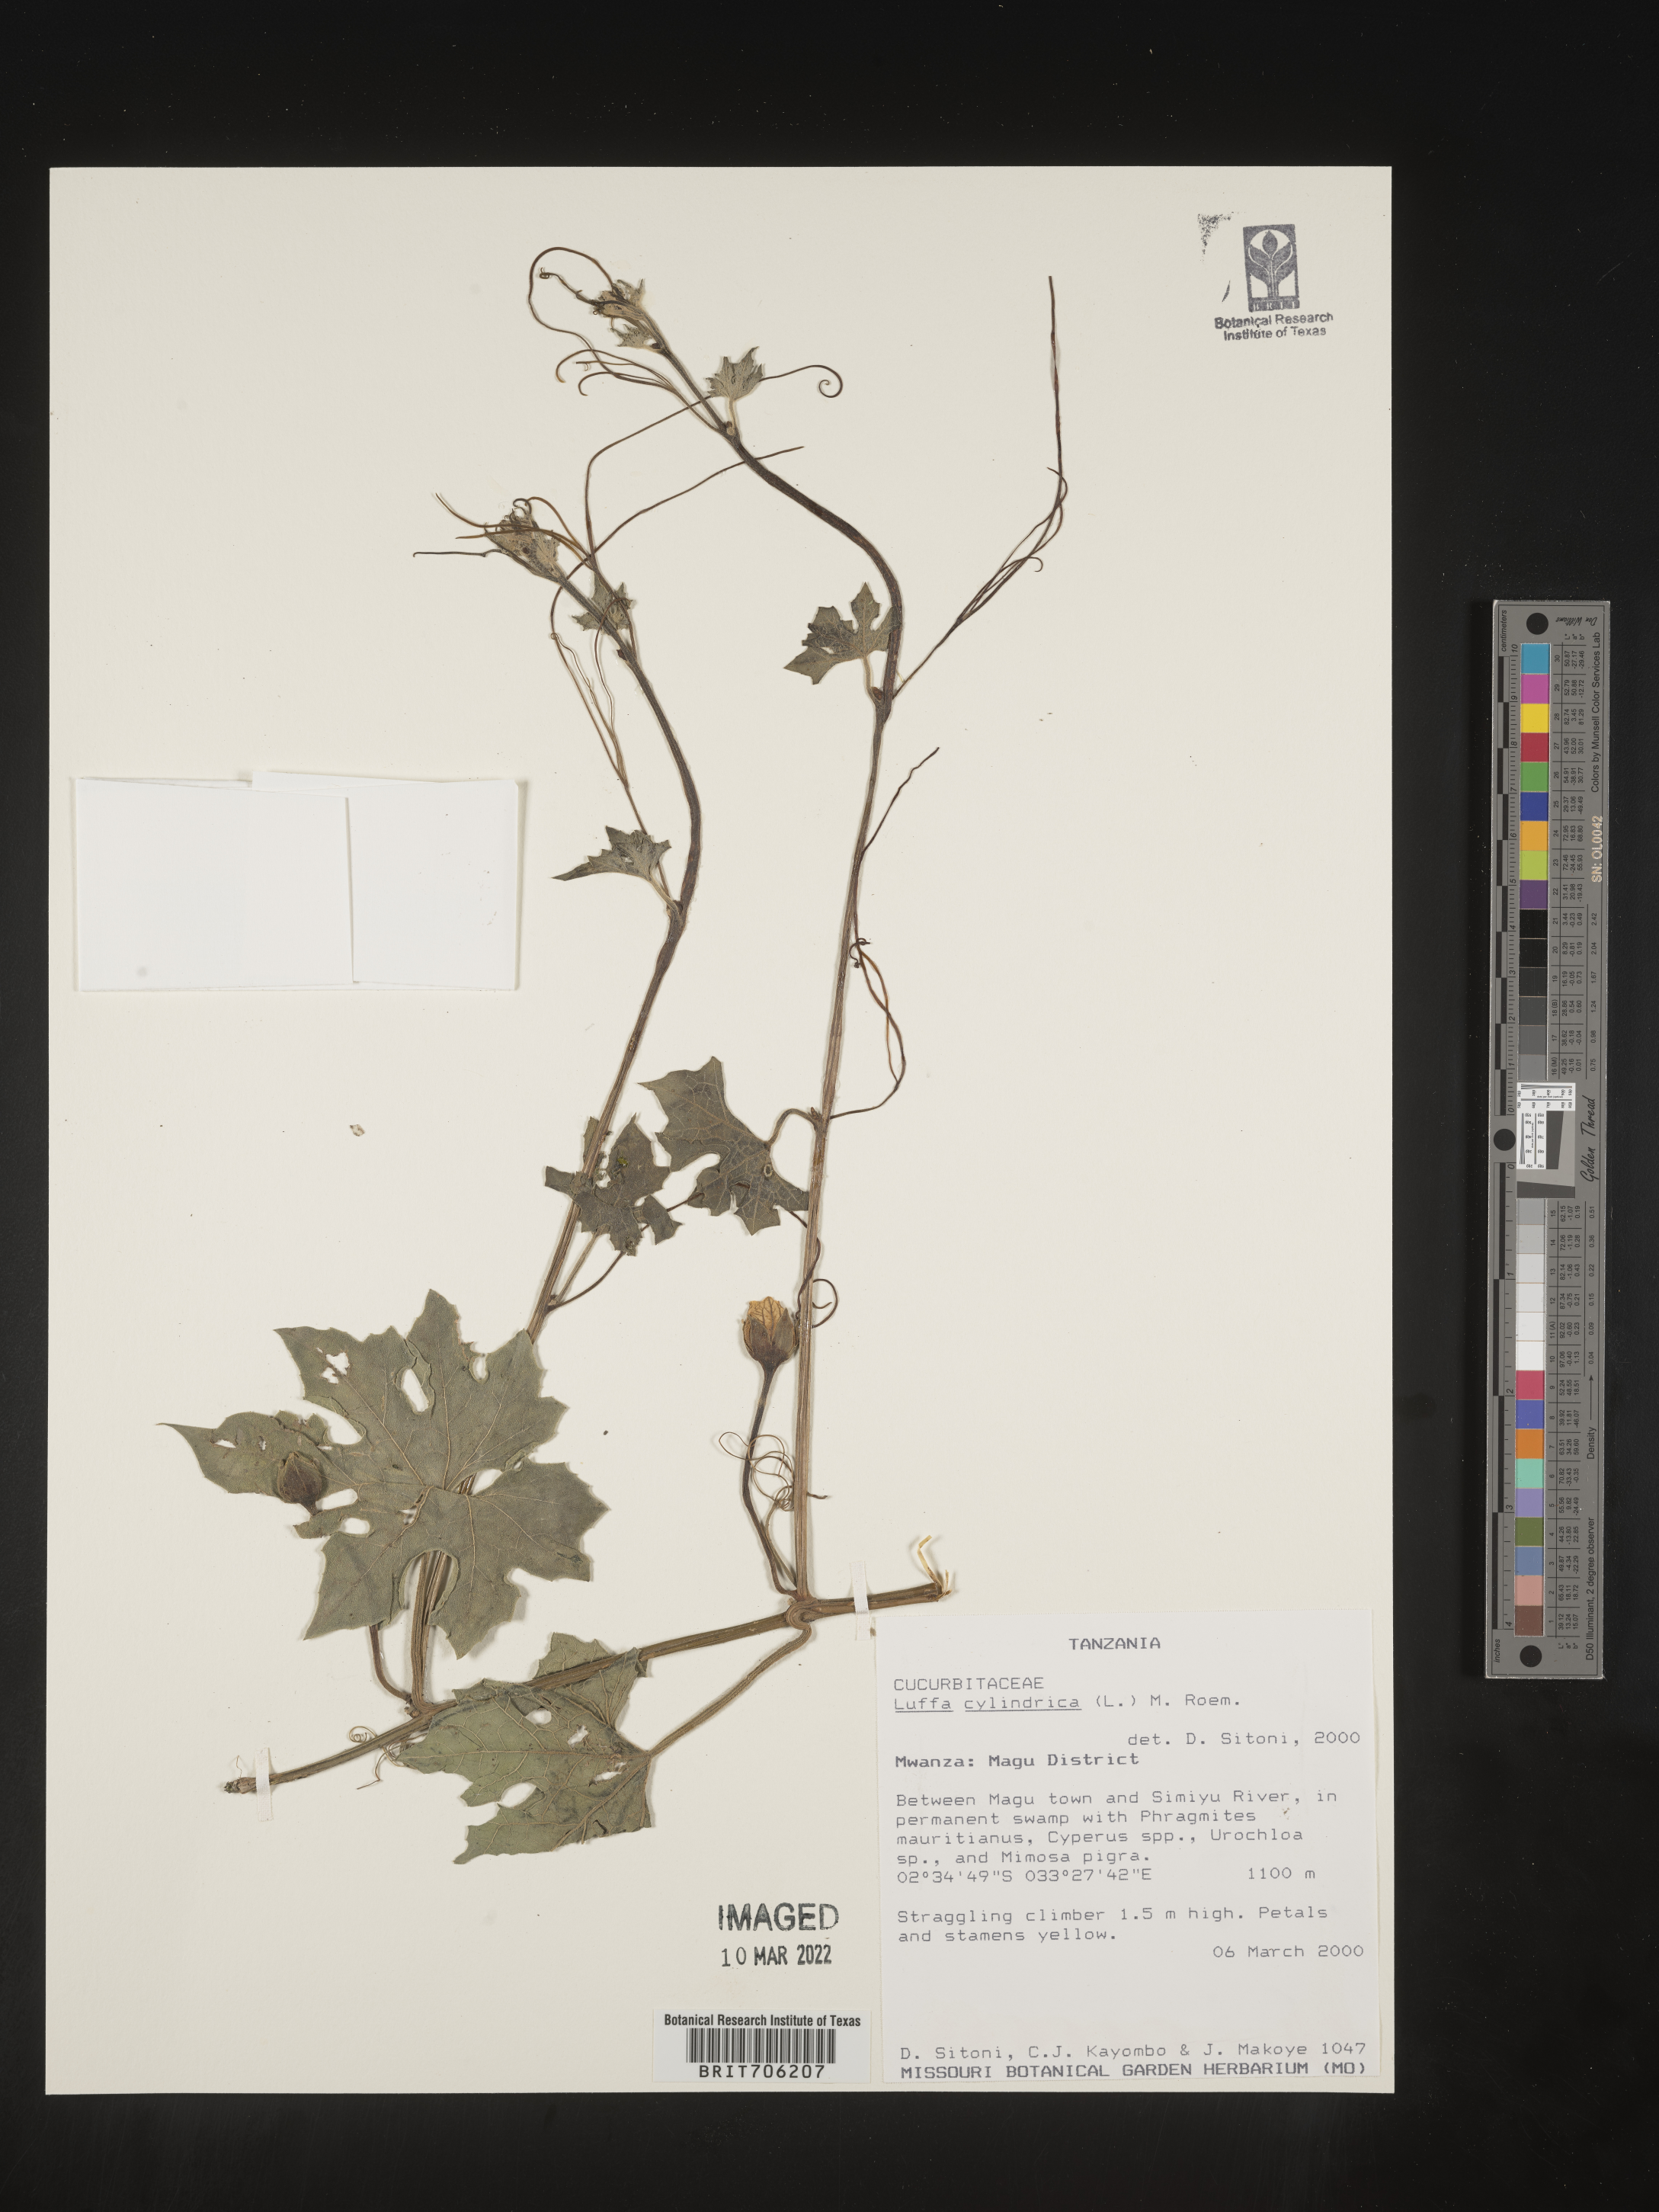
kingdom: Plantae
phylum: Tracheophyta
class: Magnoliopsida
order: Cucurbitales
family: Cucurbitaceae
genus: Luffa
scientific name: Luffa
